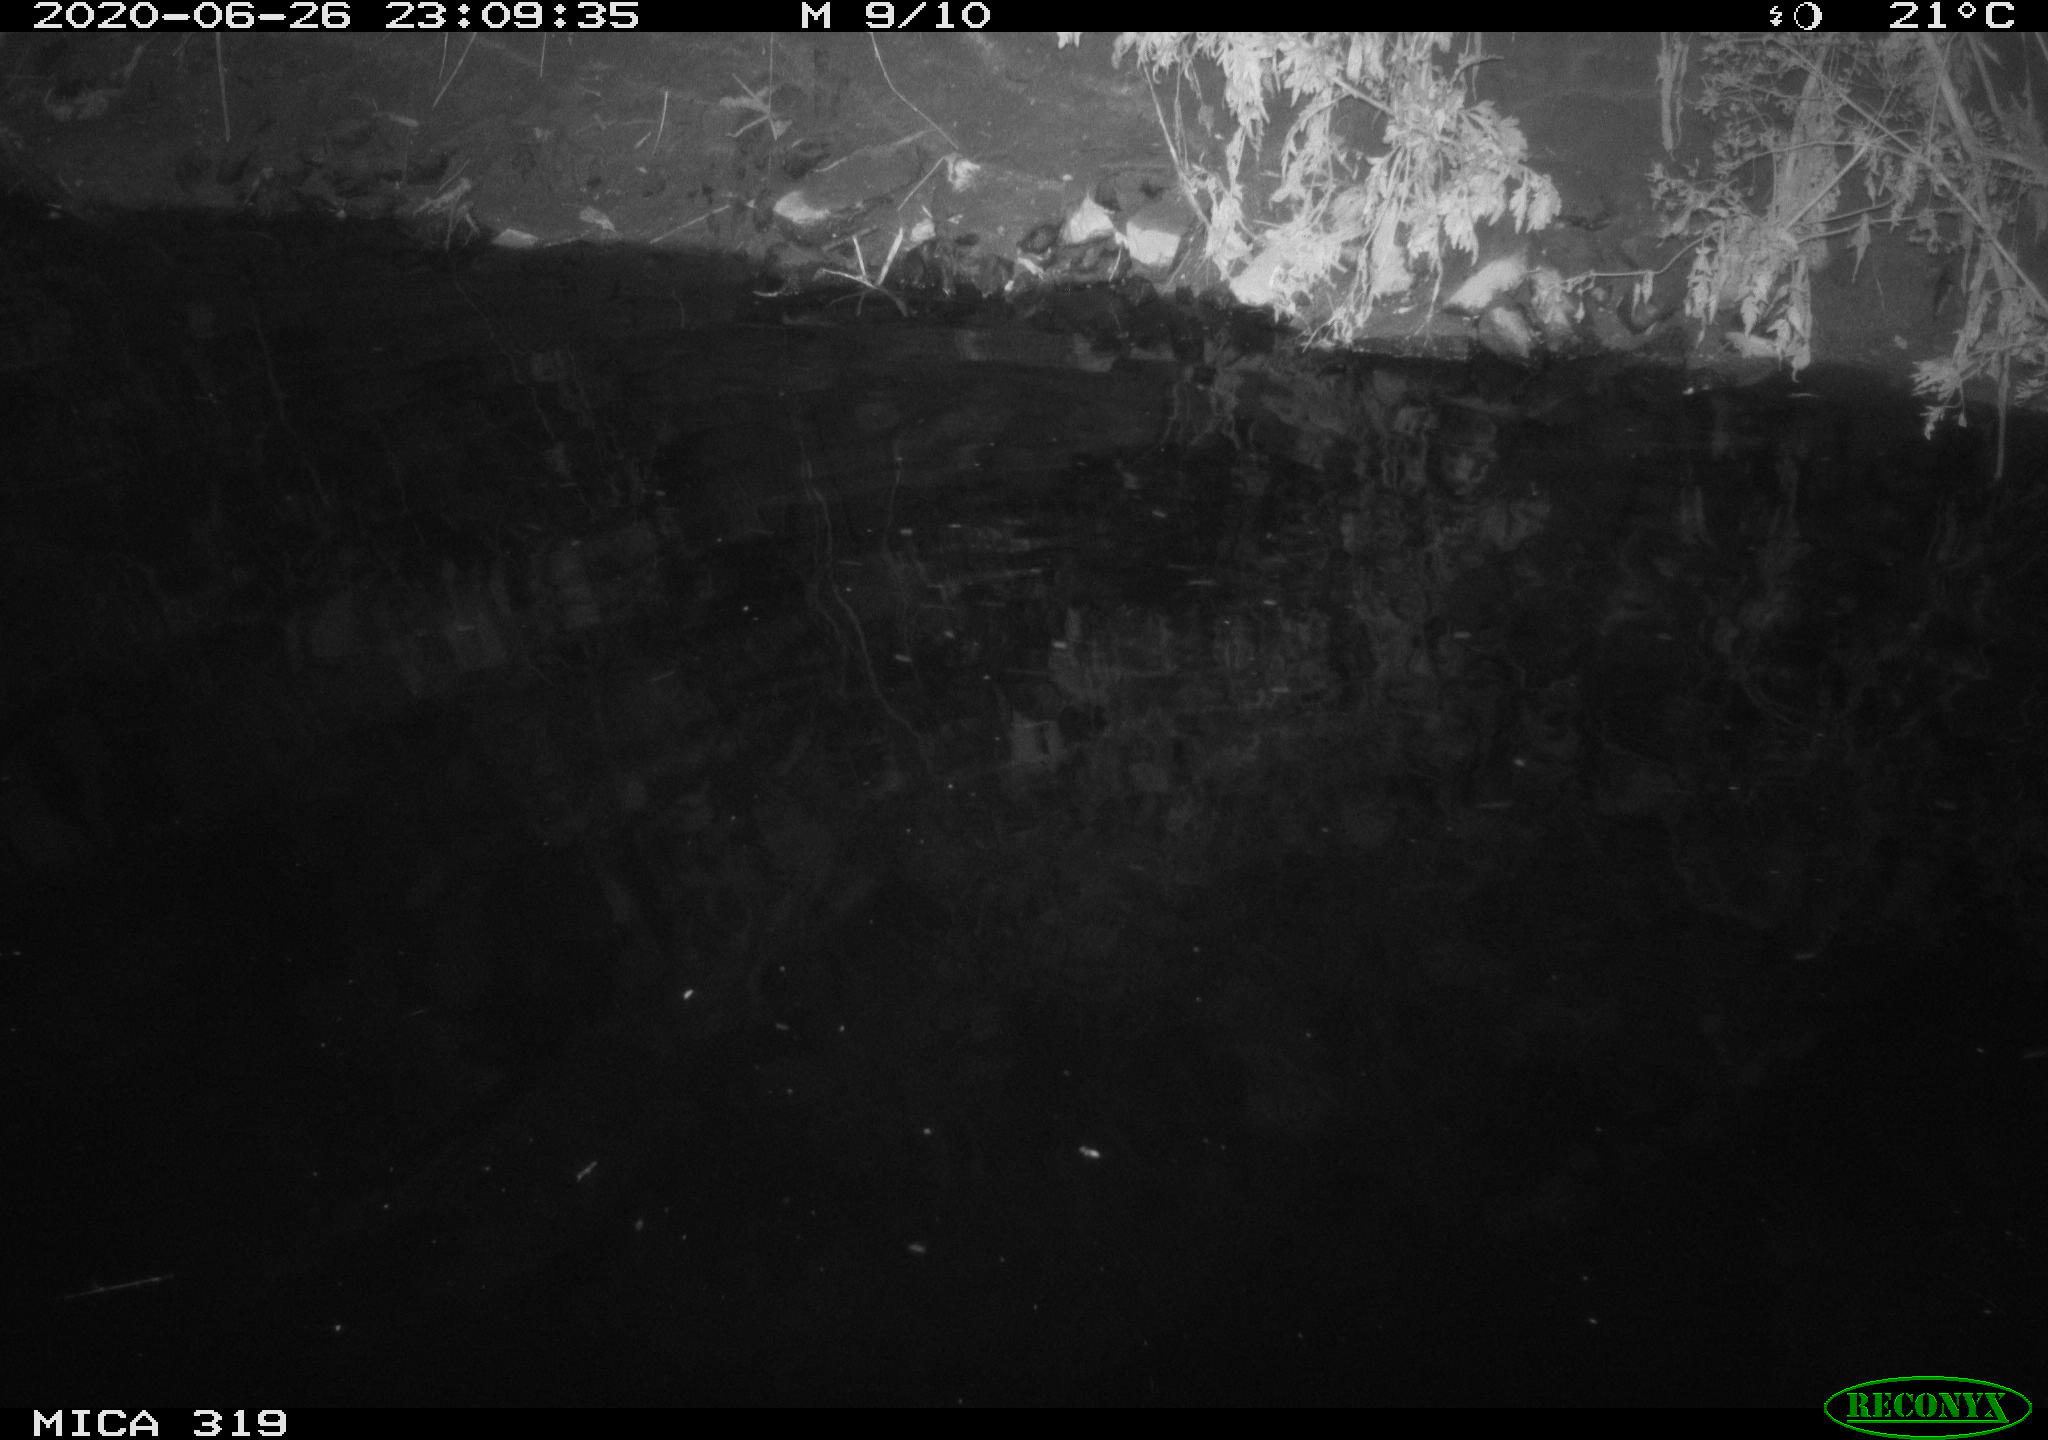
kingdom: Animalia
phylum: Chordata
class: Aves
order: Anseriformes
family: Anatidae
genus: Anas
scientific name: Anas platyrhynchos
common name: Mallard
